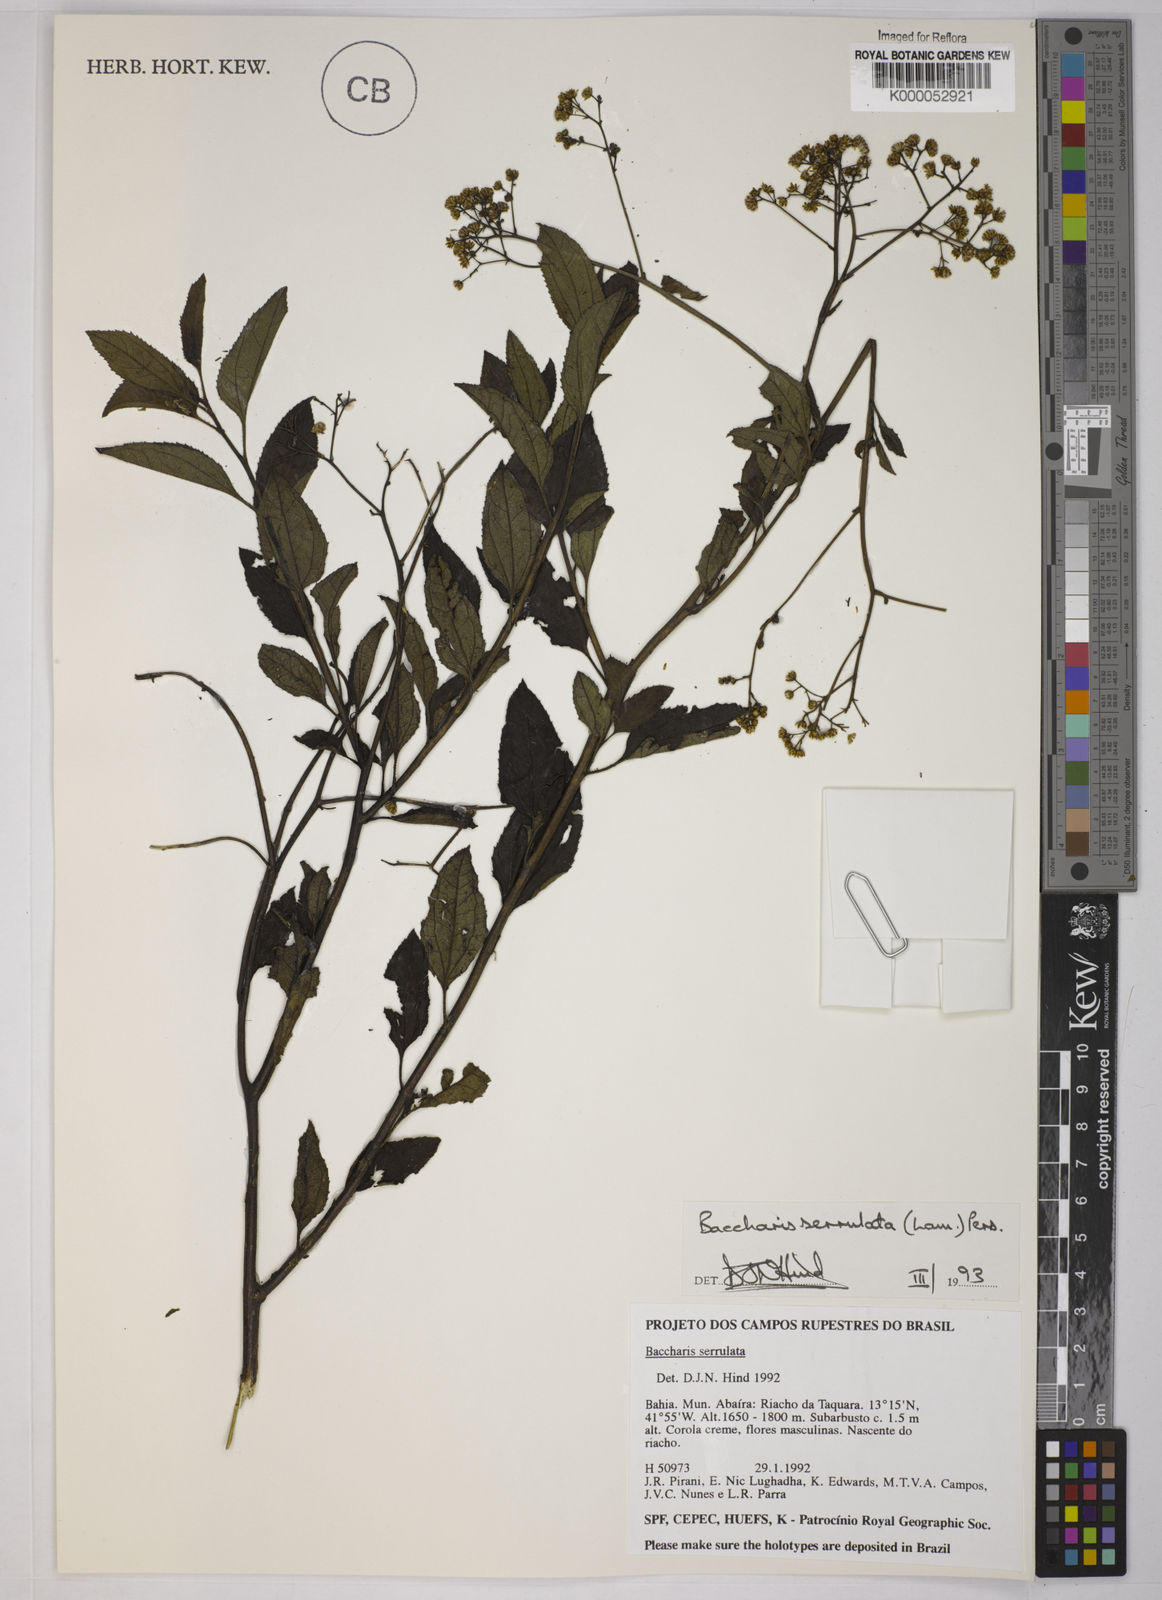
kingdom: Plantae
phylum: Tracheophyta
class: Magnoliopsida
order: Asterales
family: Asteraceae
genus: Baccharis
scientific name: Baccharis serrulata
